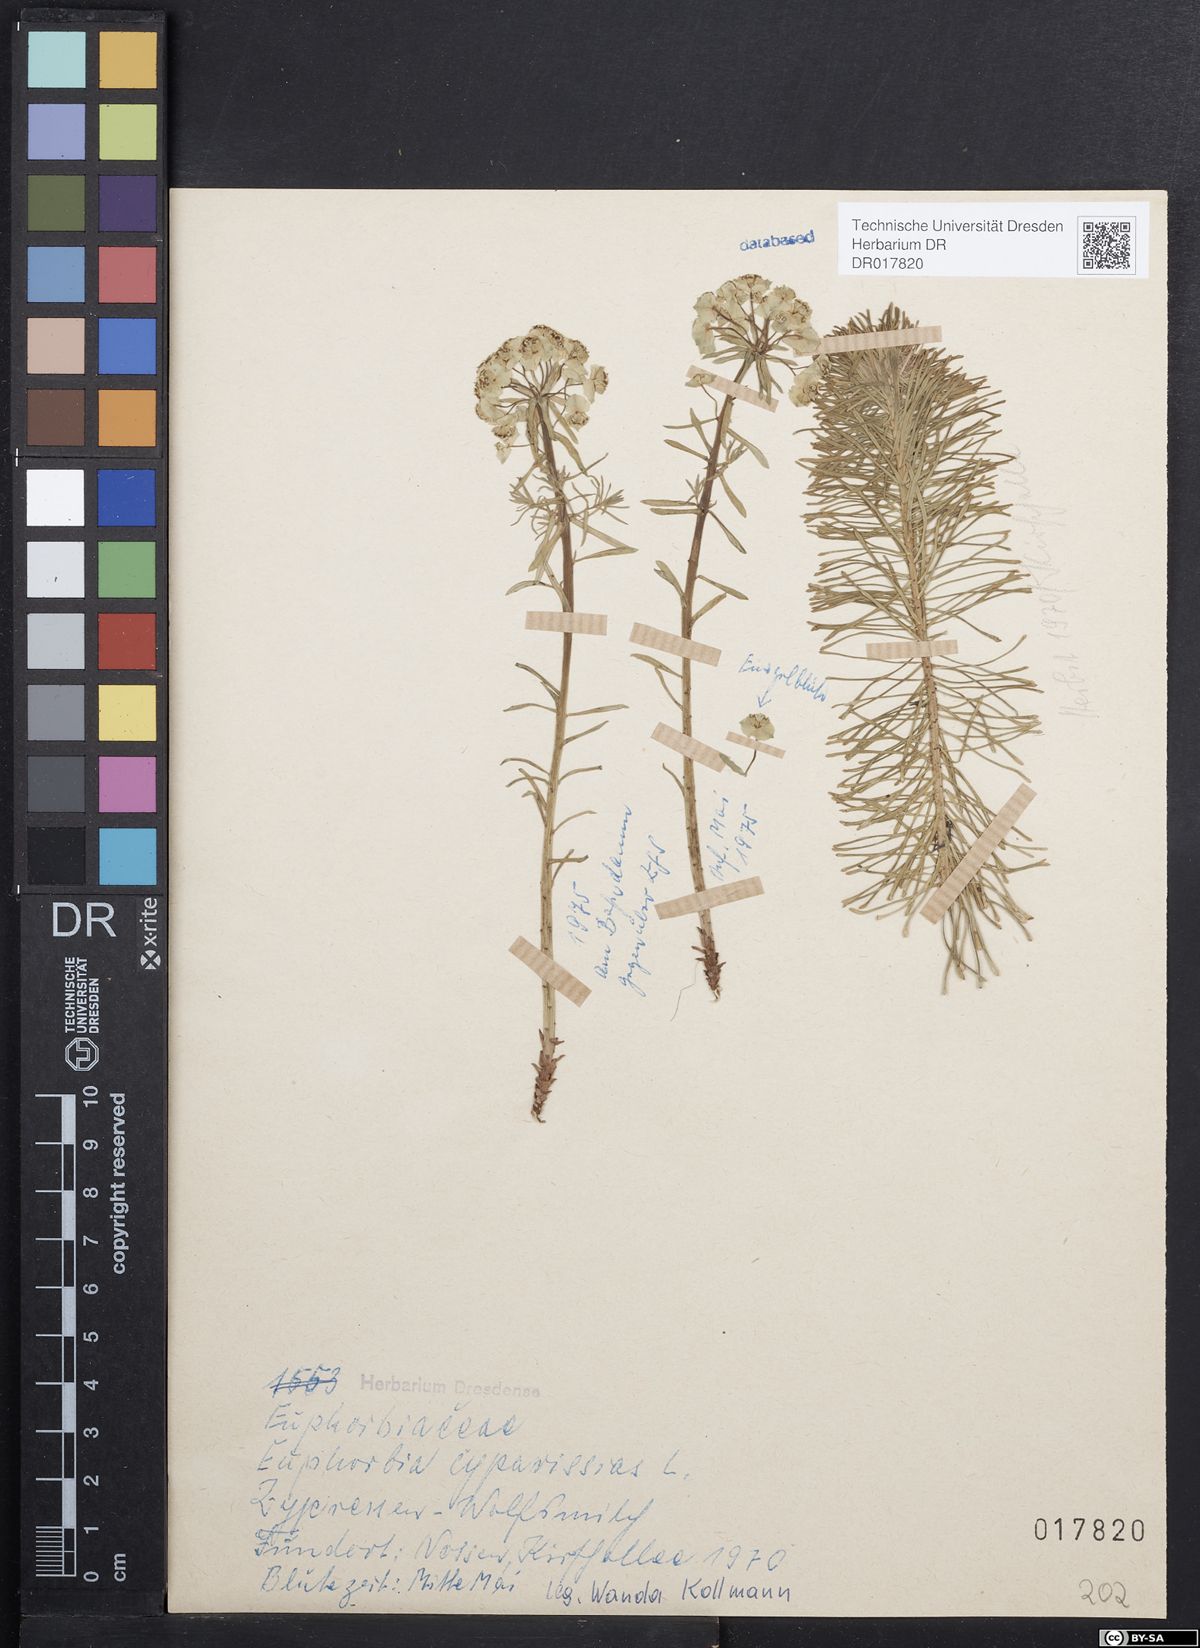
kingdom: Plantae
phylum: Tracheophyta
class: Magnoliopsida
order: Malpighiales
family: Euphorbiaceae
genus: Euphorbia
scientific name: Euphorbia cyparissias
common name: Cypress spurge
